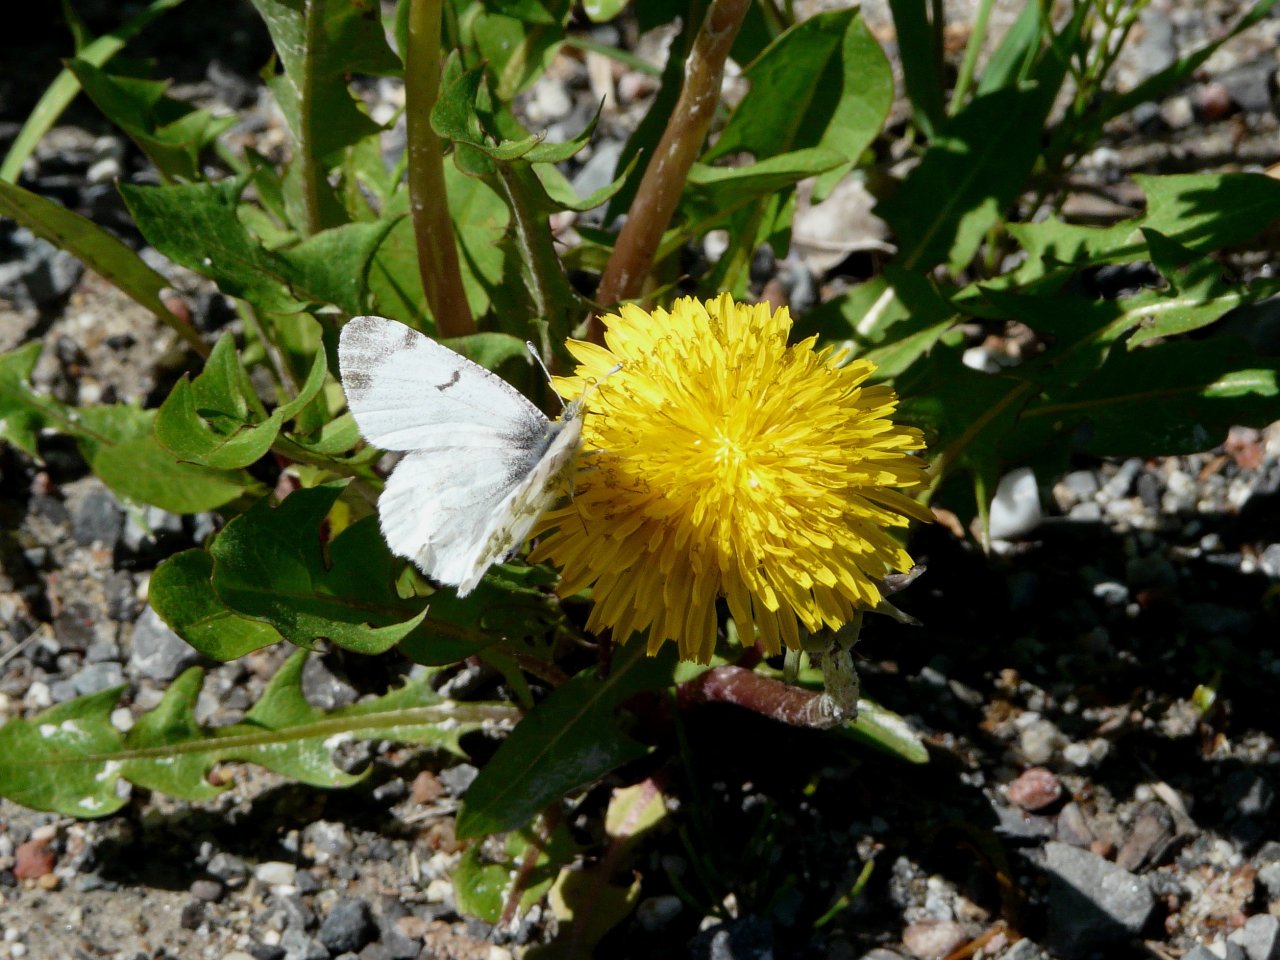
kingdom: Animalia
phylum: Arthropoda
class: Insecta
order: Lepidoptera
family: Pieridae
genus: Euchloe
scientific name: Euchloe olympia
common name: Olympia Marble
